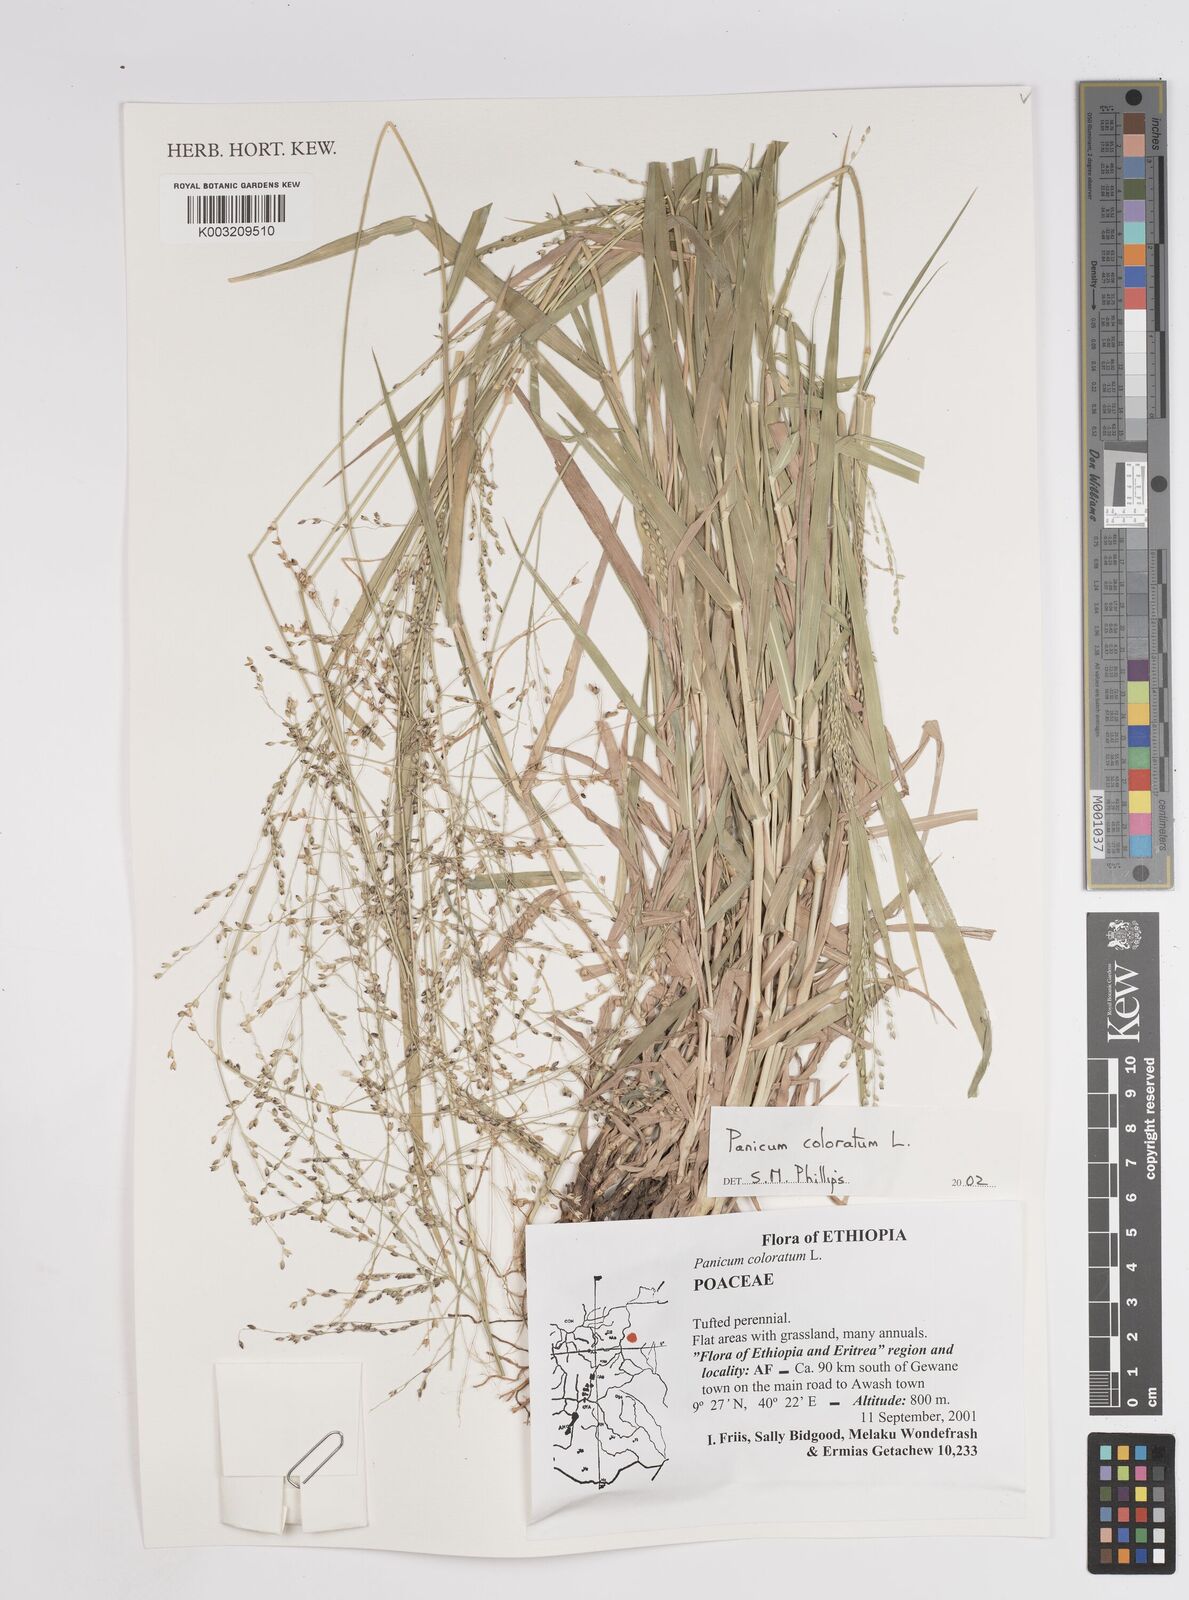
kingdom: Plantae
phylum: Tracheophyta
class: Liliopsida
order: Poales
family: Poaceae
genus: Tricholaena
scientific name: Tricholaena monachne
